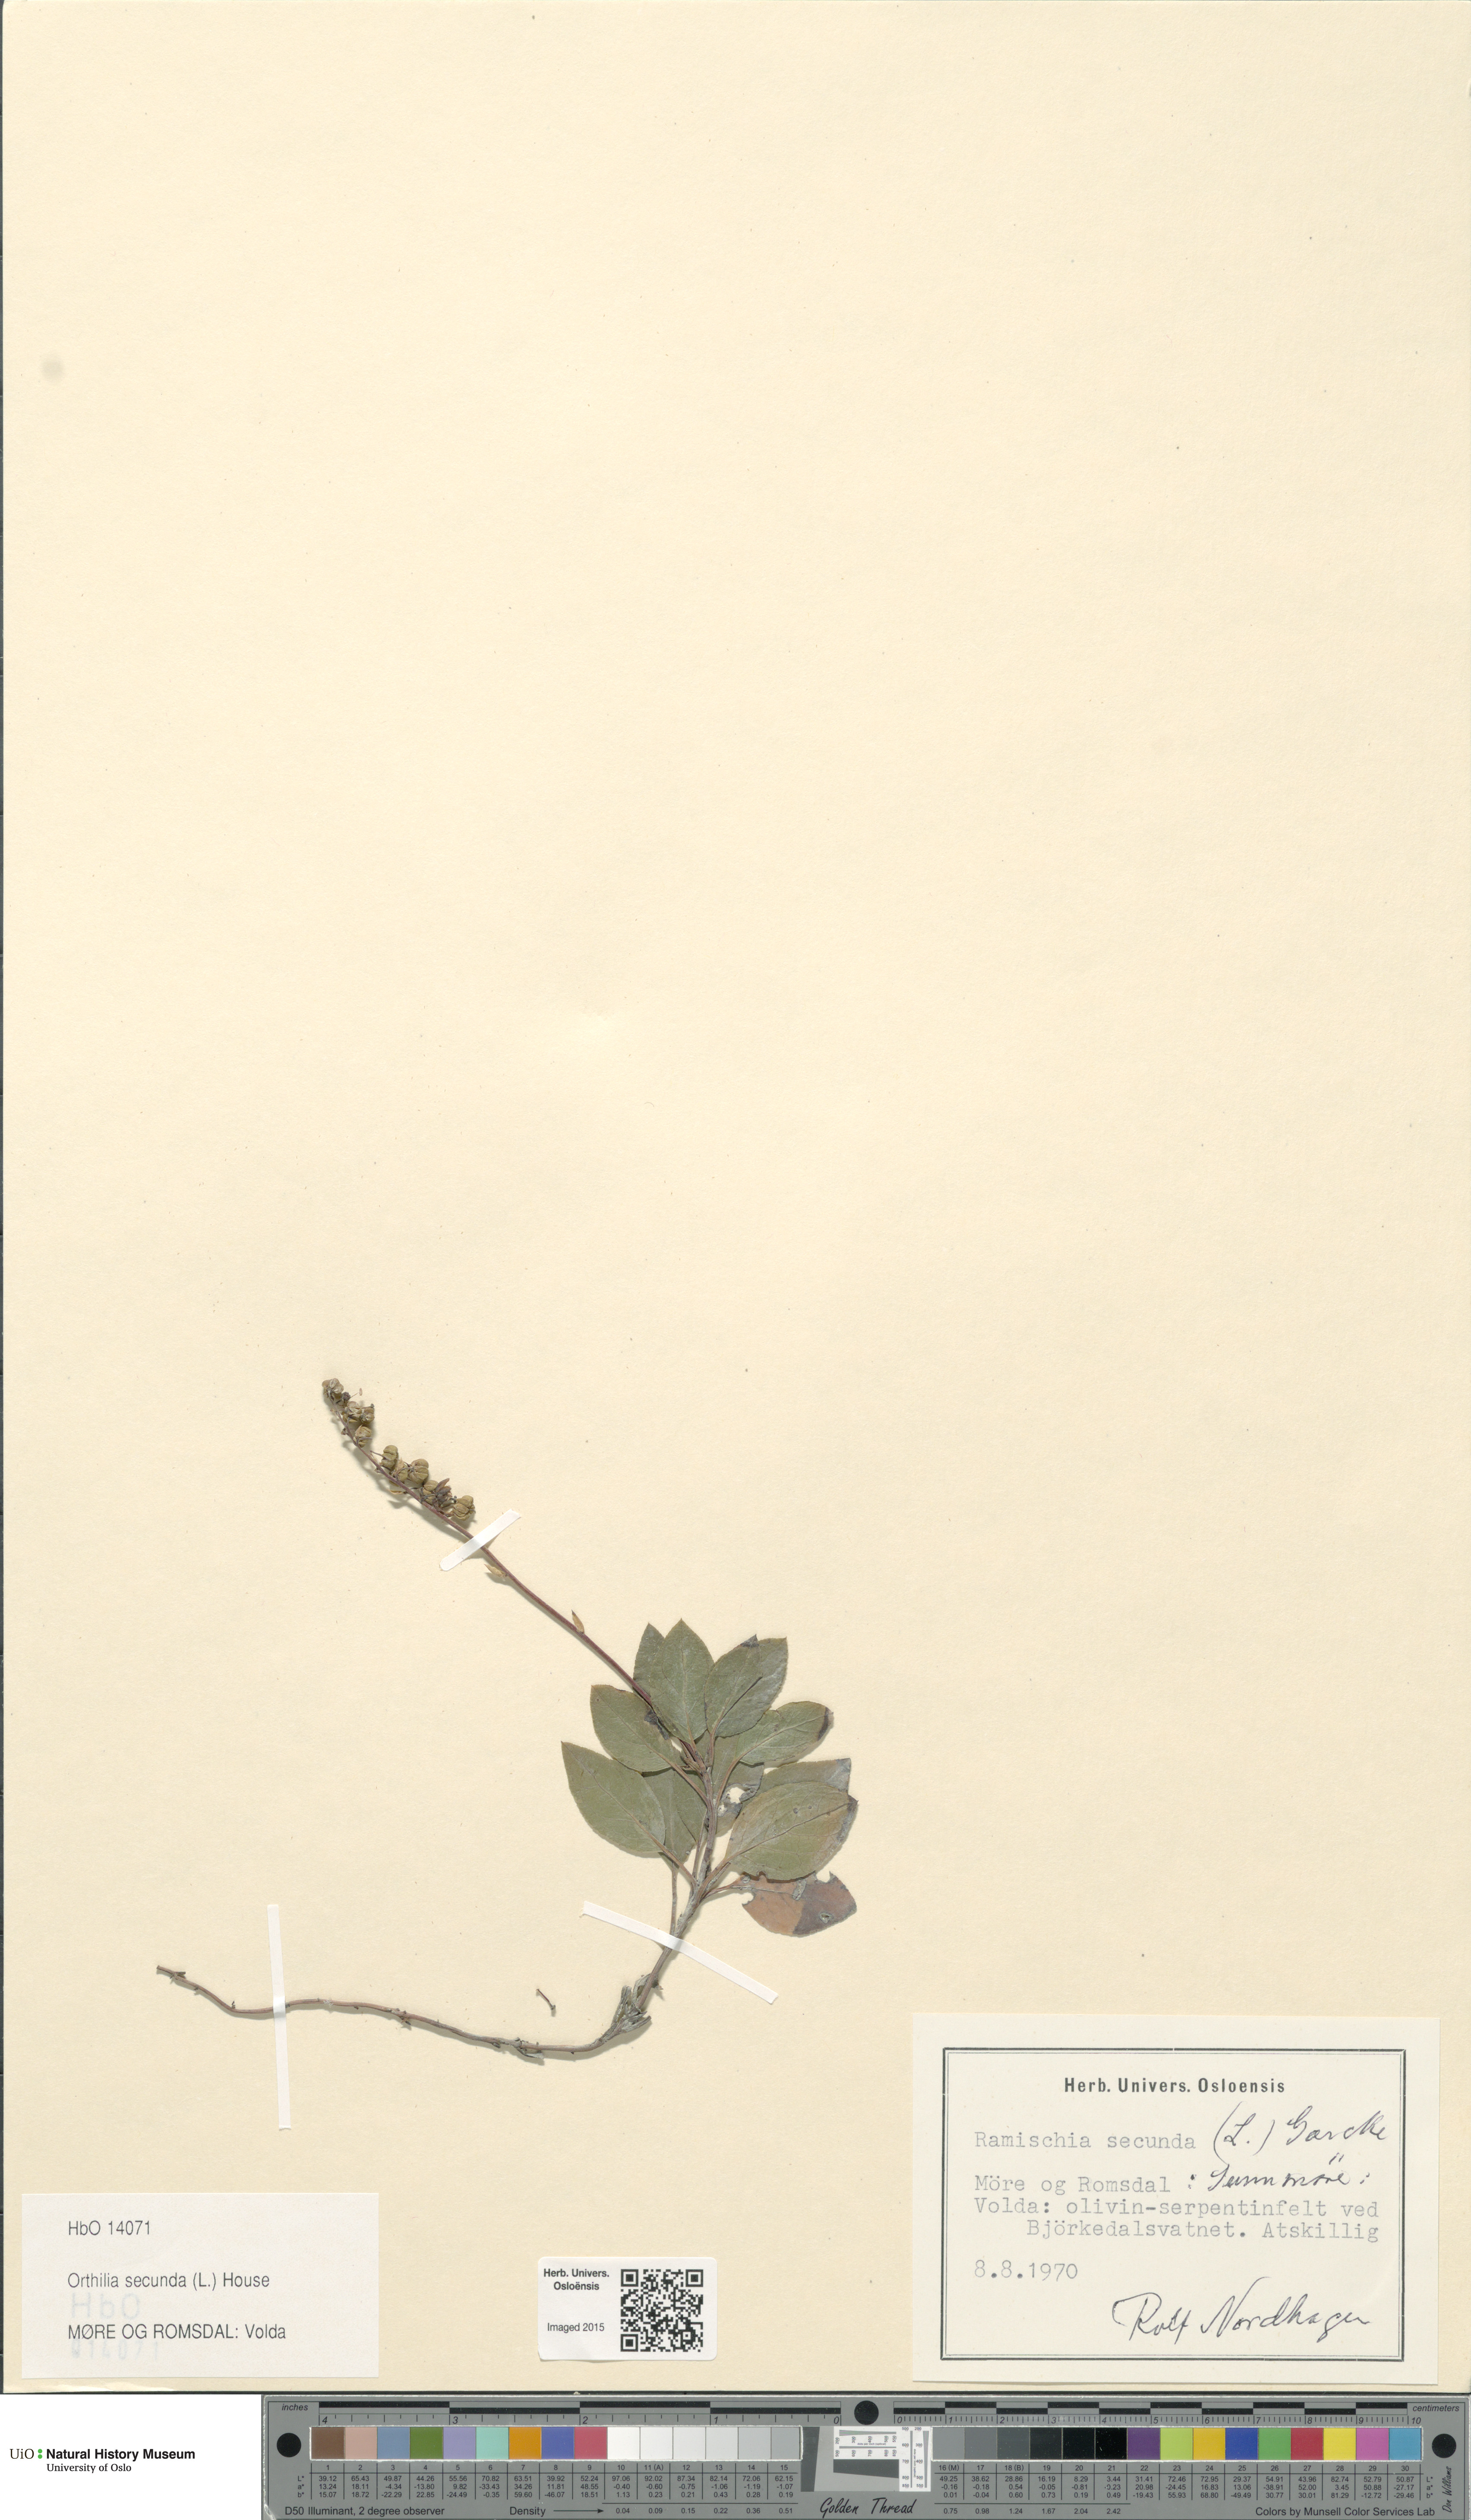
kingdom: Plantae
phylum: Tracheophyta
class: Magnoliopsida
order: Ericales
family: Ericaceae
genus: Orthilia
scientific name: Orthilia secunda
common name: One-sided orthilia
